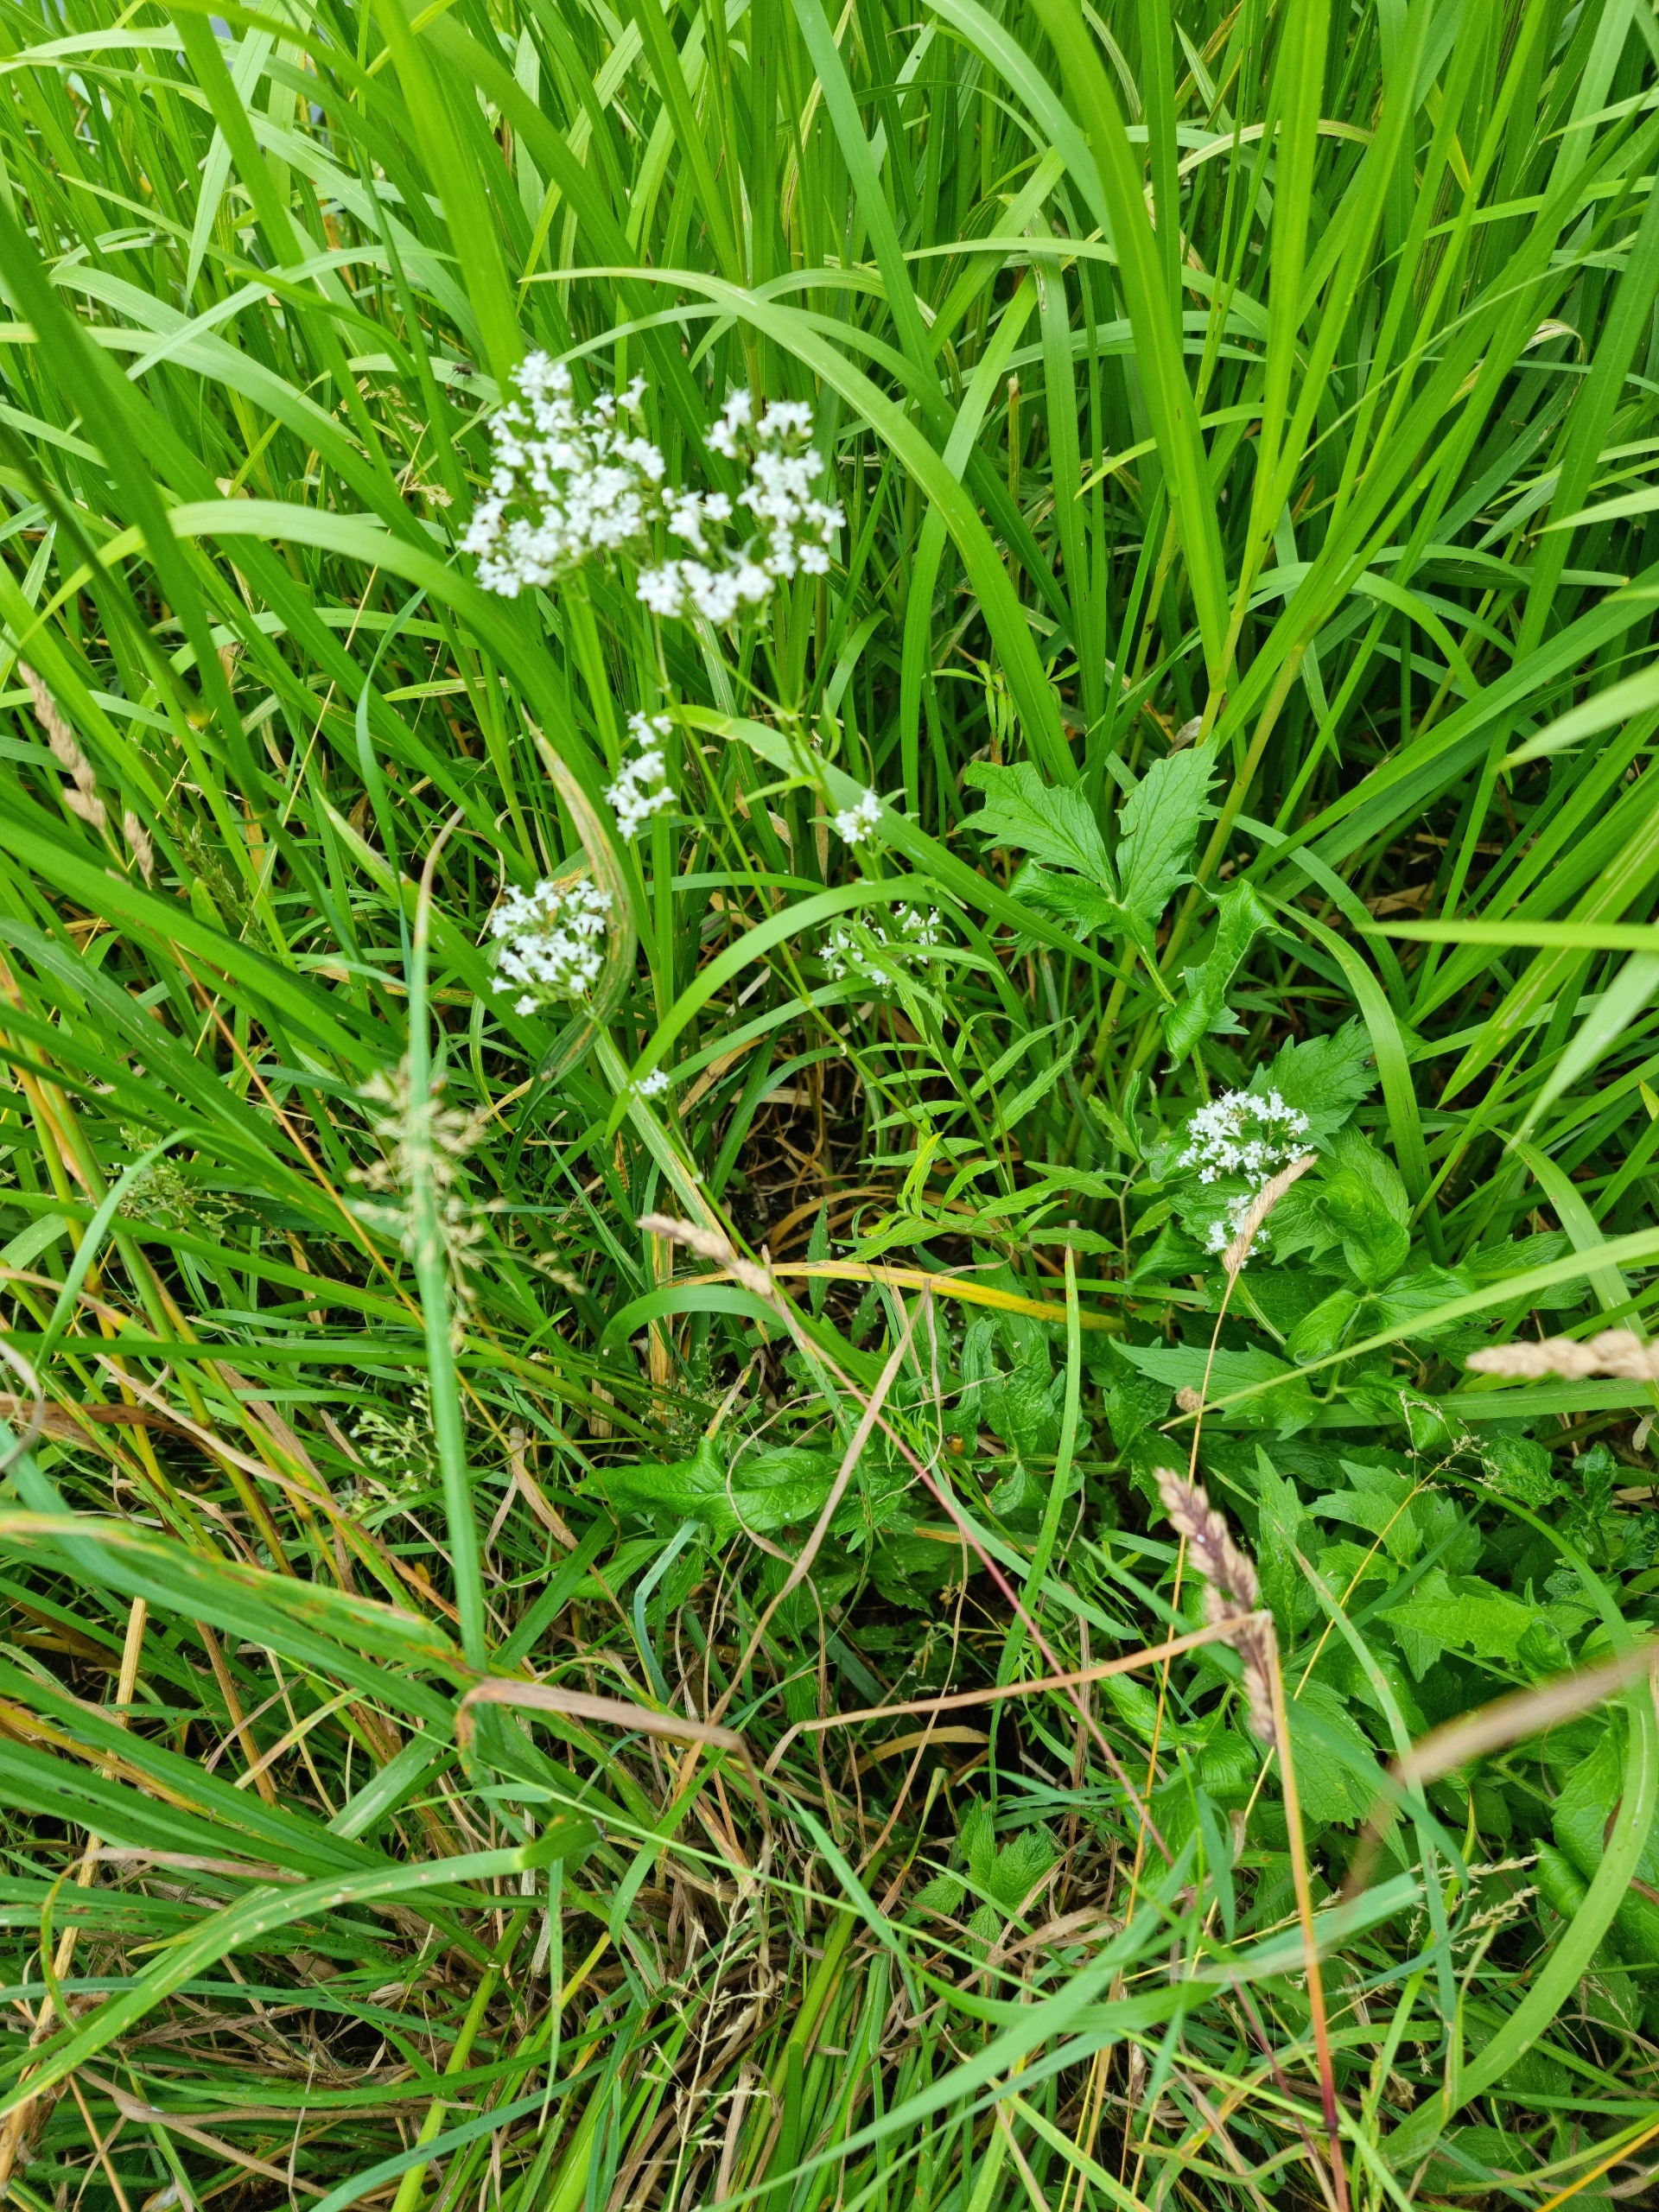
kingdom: Plantae
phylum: Tracheophyta
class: Magnoliopsida
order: Dipsacales
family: Caprifoliaceae
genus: Valeriana
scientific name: Valeriana sambucifolia
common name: Hyldebladet baldrian
